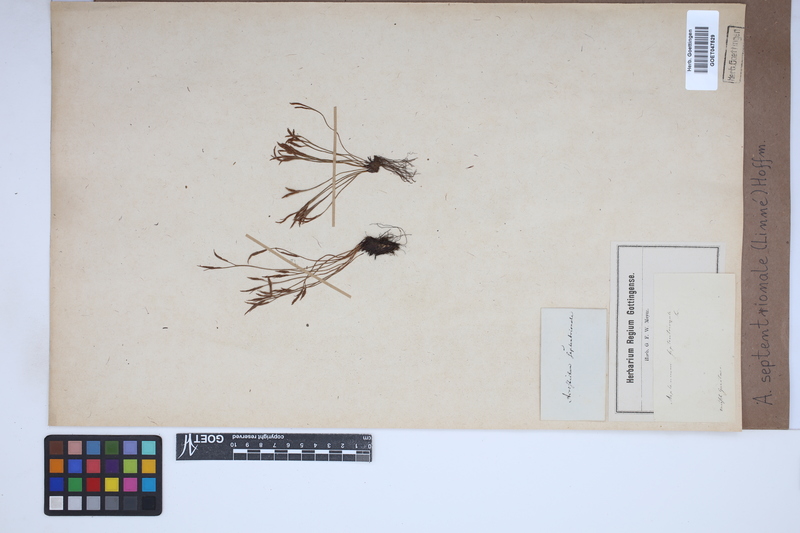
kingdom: Plantae
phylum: Tracheophyta
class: Polypodiopsida
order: Polypodiales
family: Aspleniaceae
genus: Asplenium
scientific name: Asplenium septentrionale
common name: Forked spleenwort
